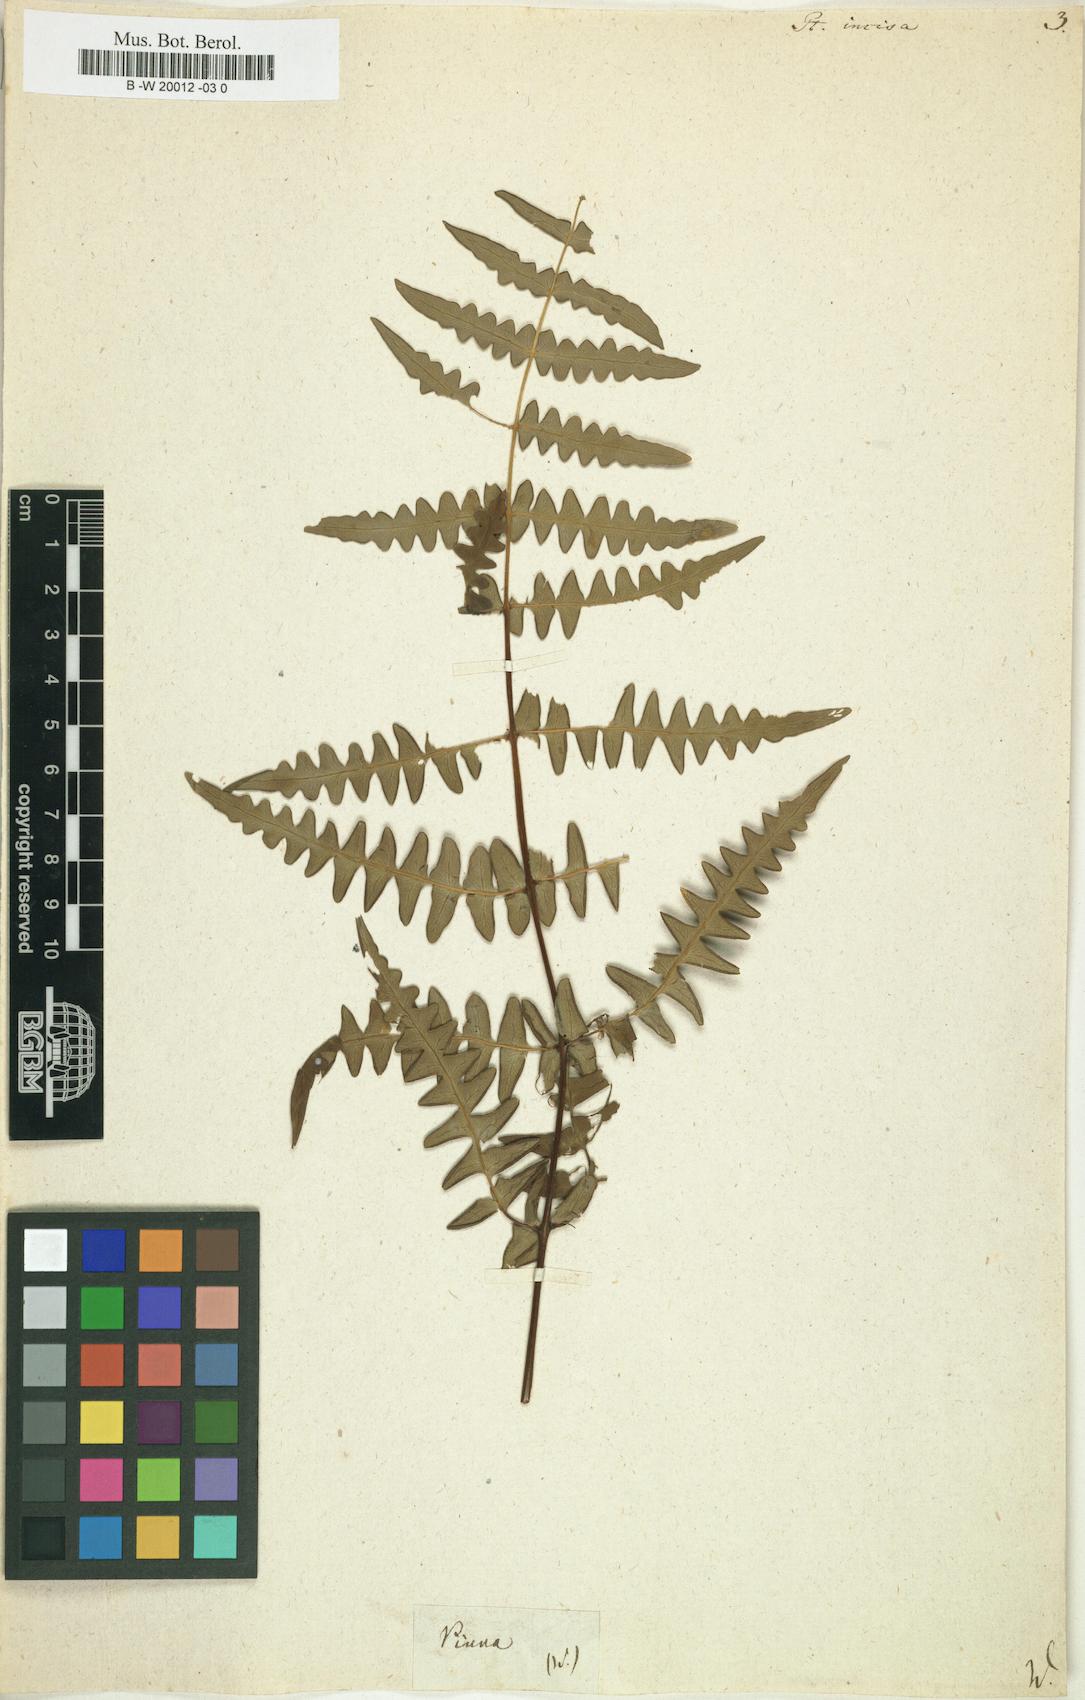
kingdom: Plantae
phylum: Tracheophyta
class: Polypodiopsida
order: Polypodiales
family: Dennstaedtiaceae
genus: Histiopteris
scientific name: Histiopteris incisa
